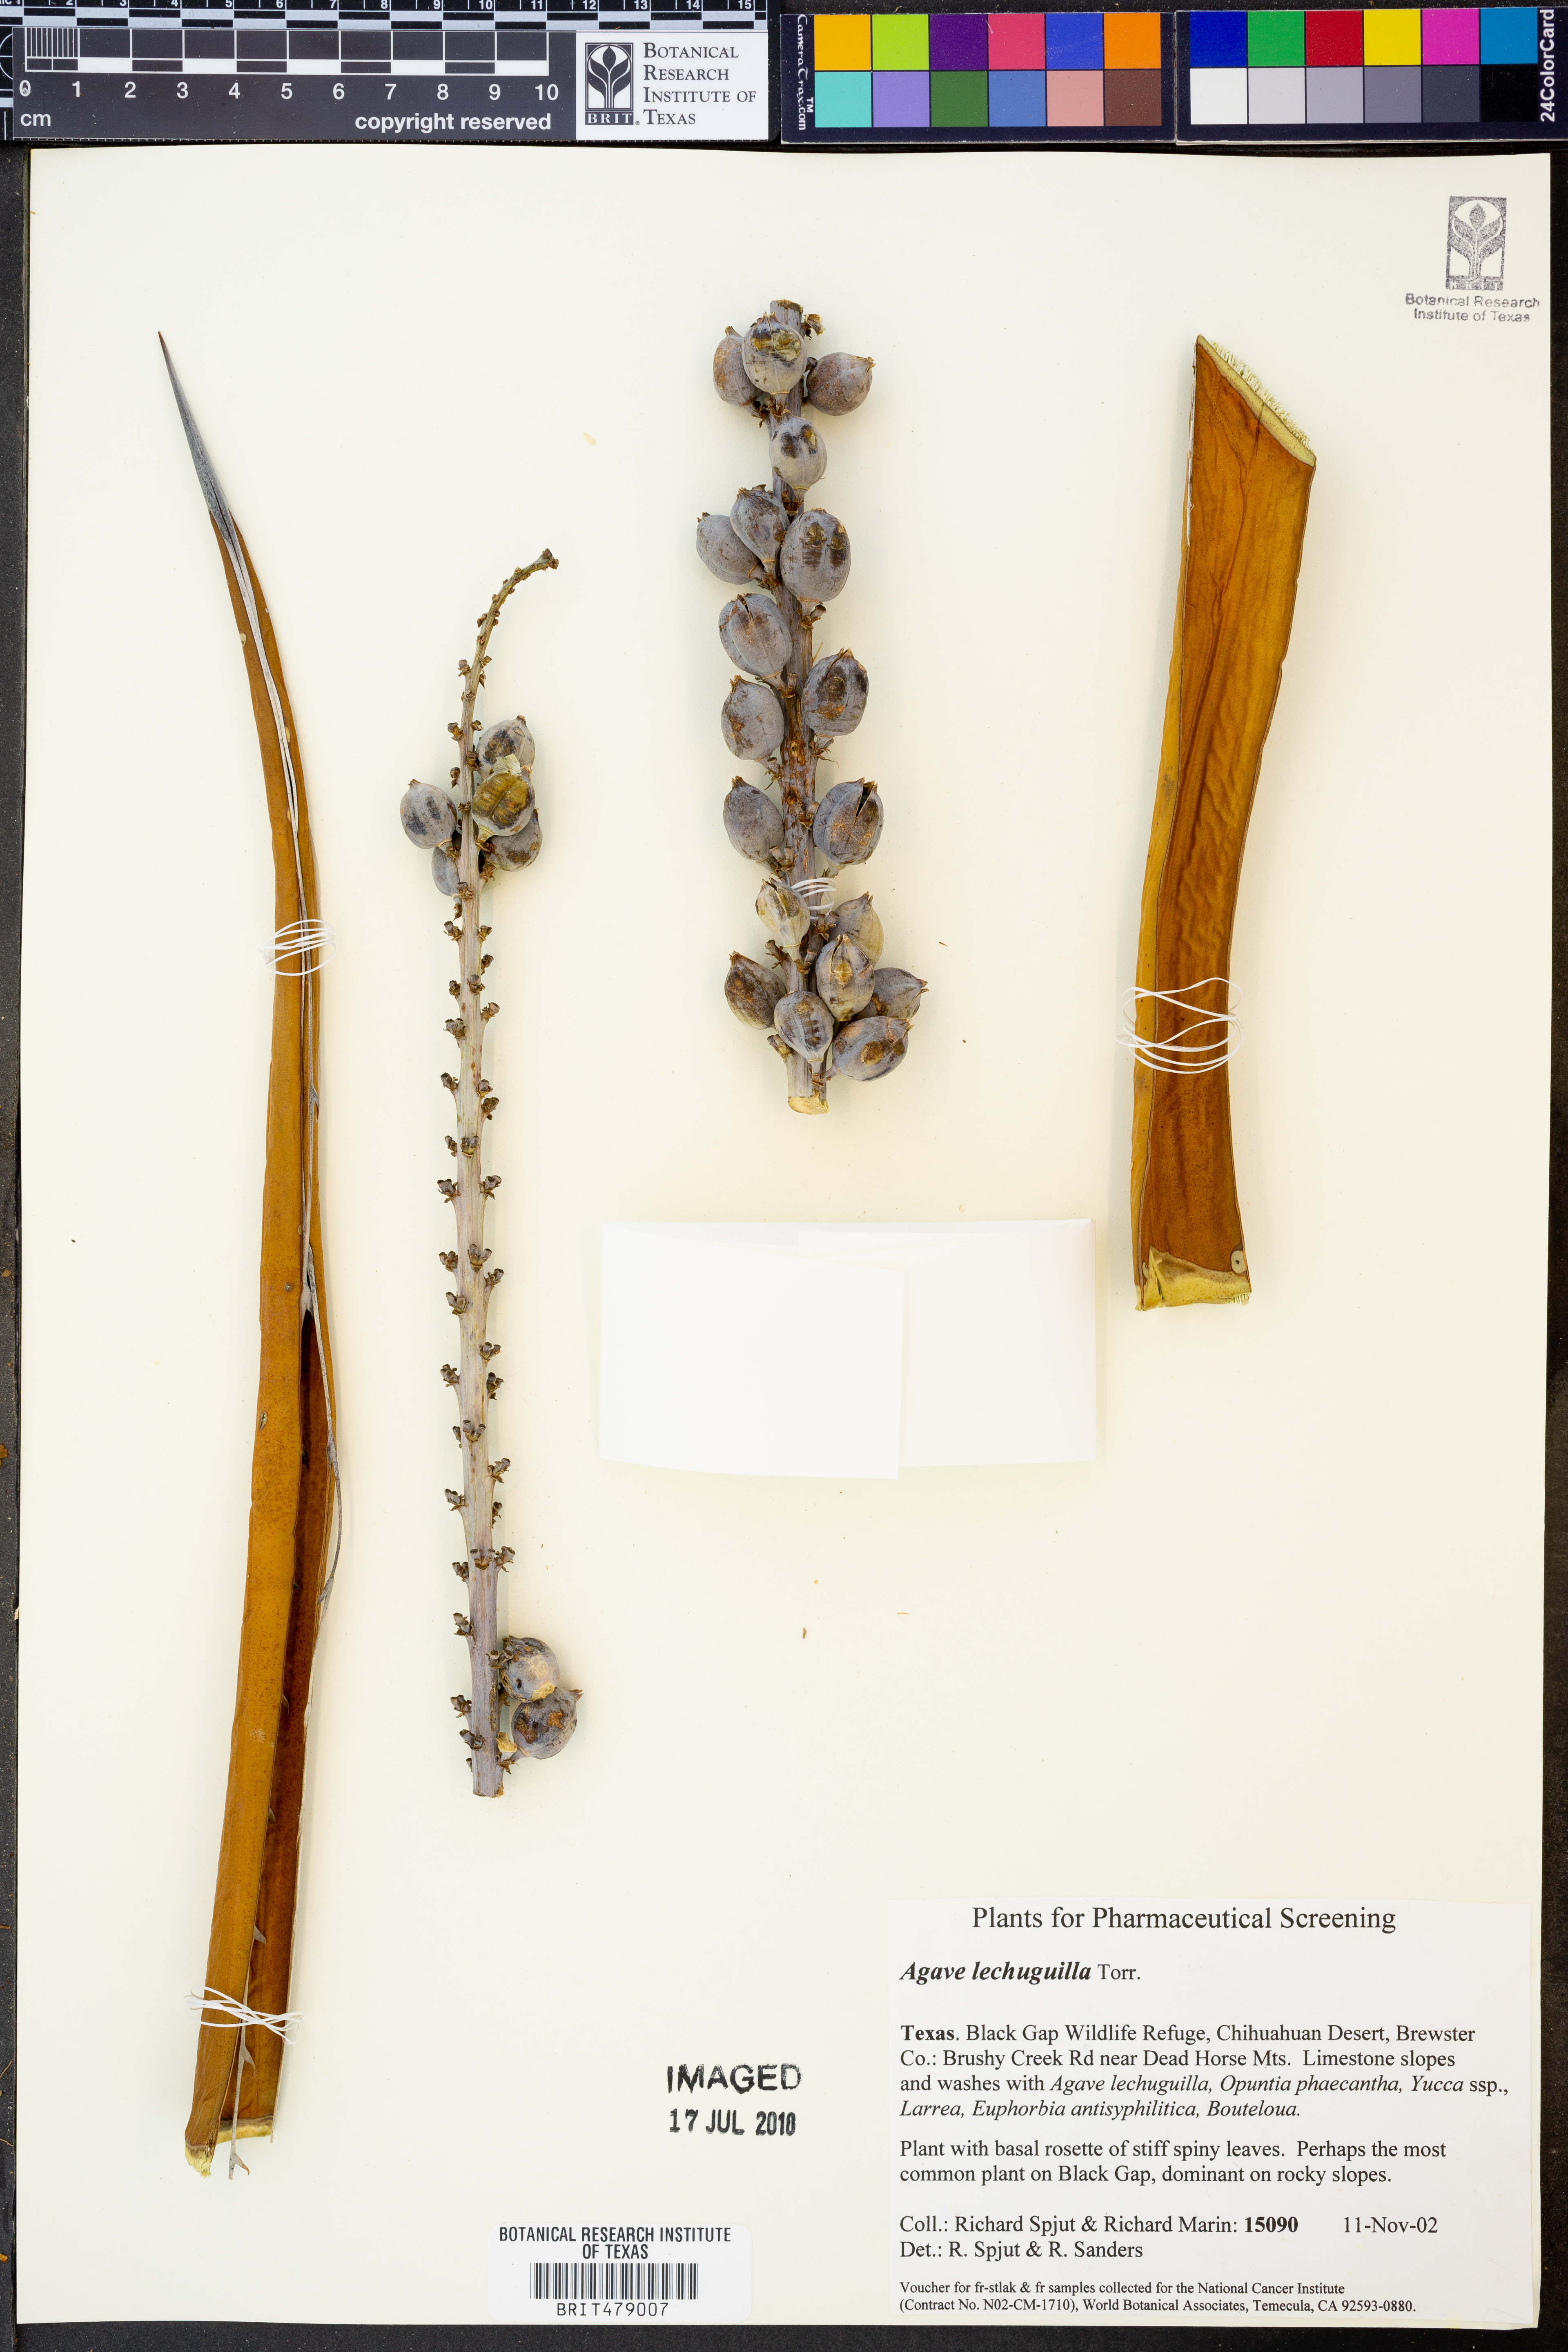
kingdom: Plantae
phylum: Tracheophyta
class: Liliopsida
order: Asparagales
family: Asparagaceae
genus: Agave
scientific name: Agave lechuguilla
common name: Lecheguilla agave
